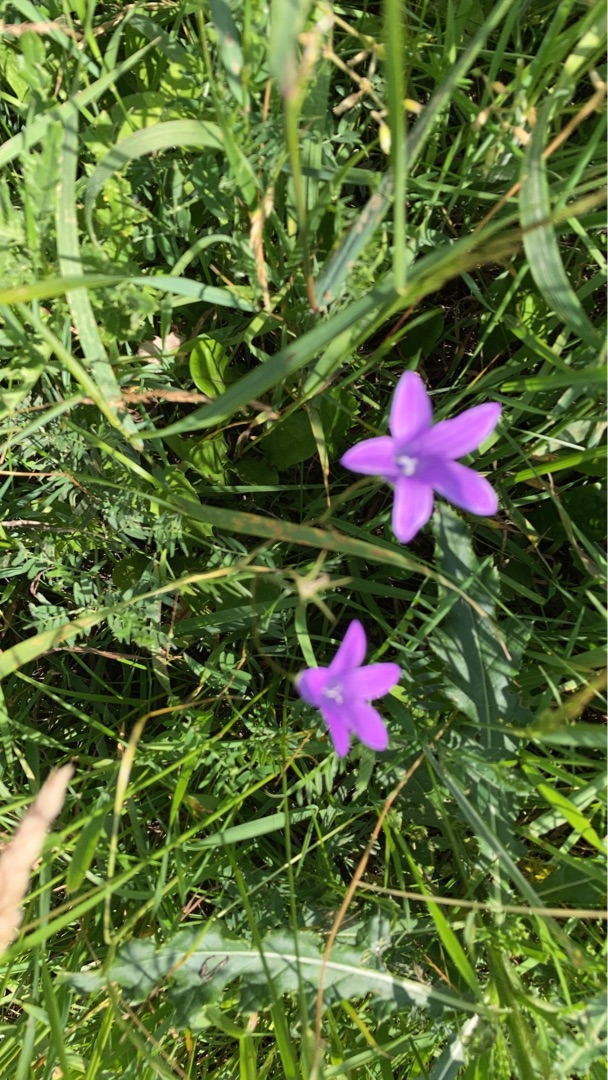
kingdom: Plantae
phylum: Tracheophyta
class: Magnoliopsida
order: Asterales
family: Campanulaceae
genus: Campanula
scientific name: Campanula patula
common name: Eng-klokke
